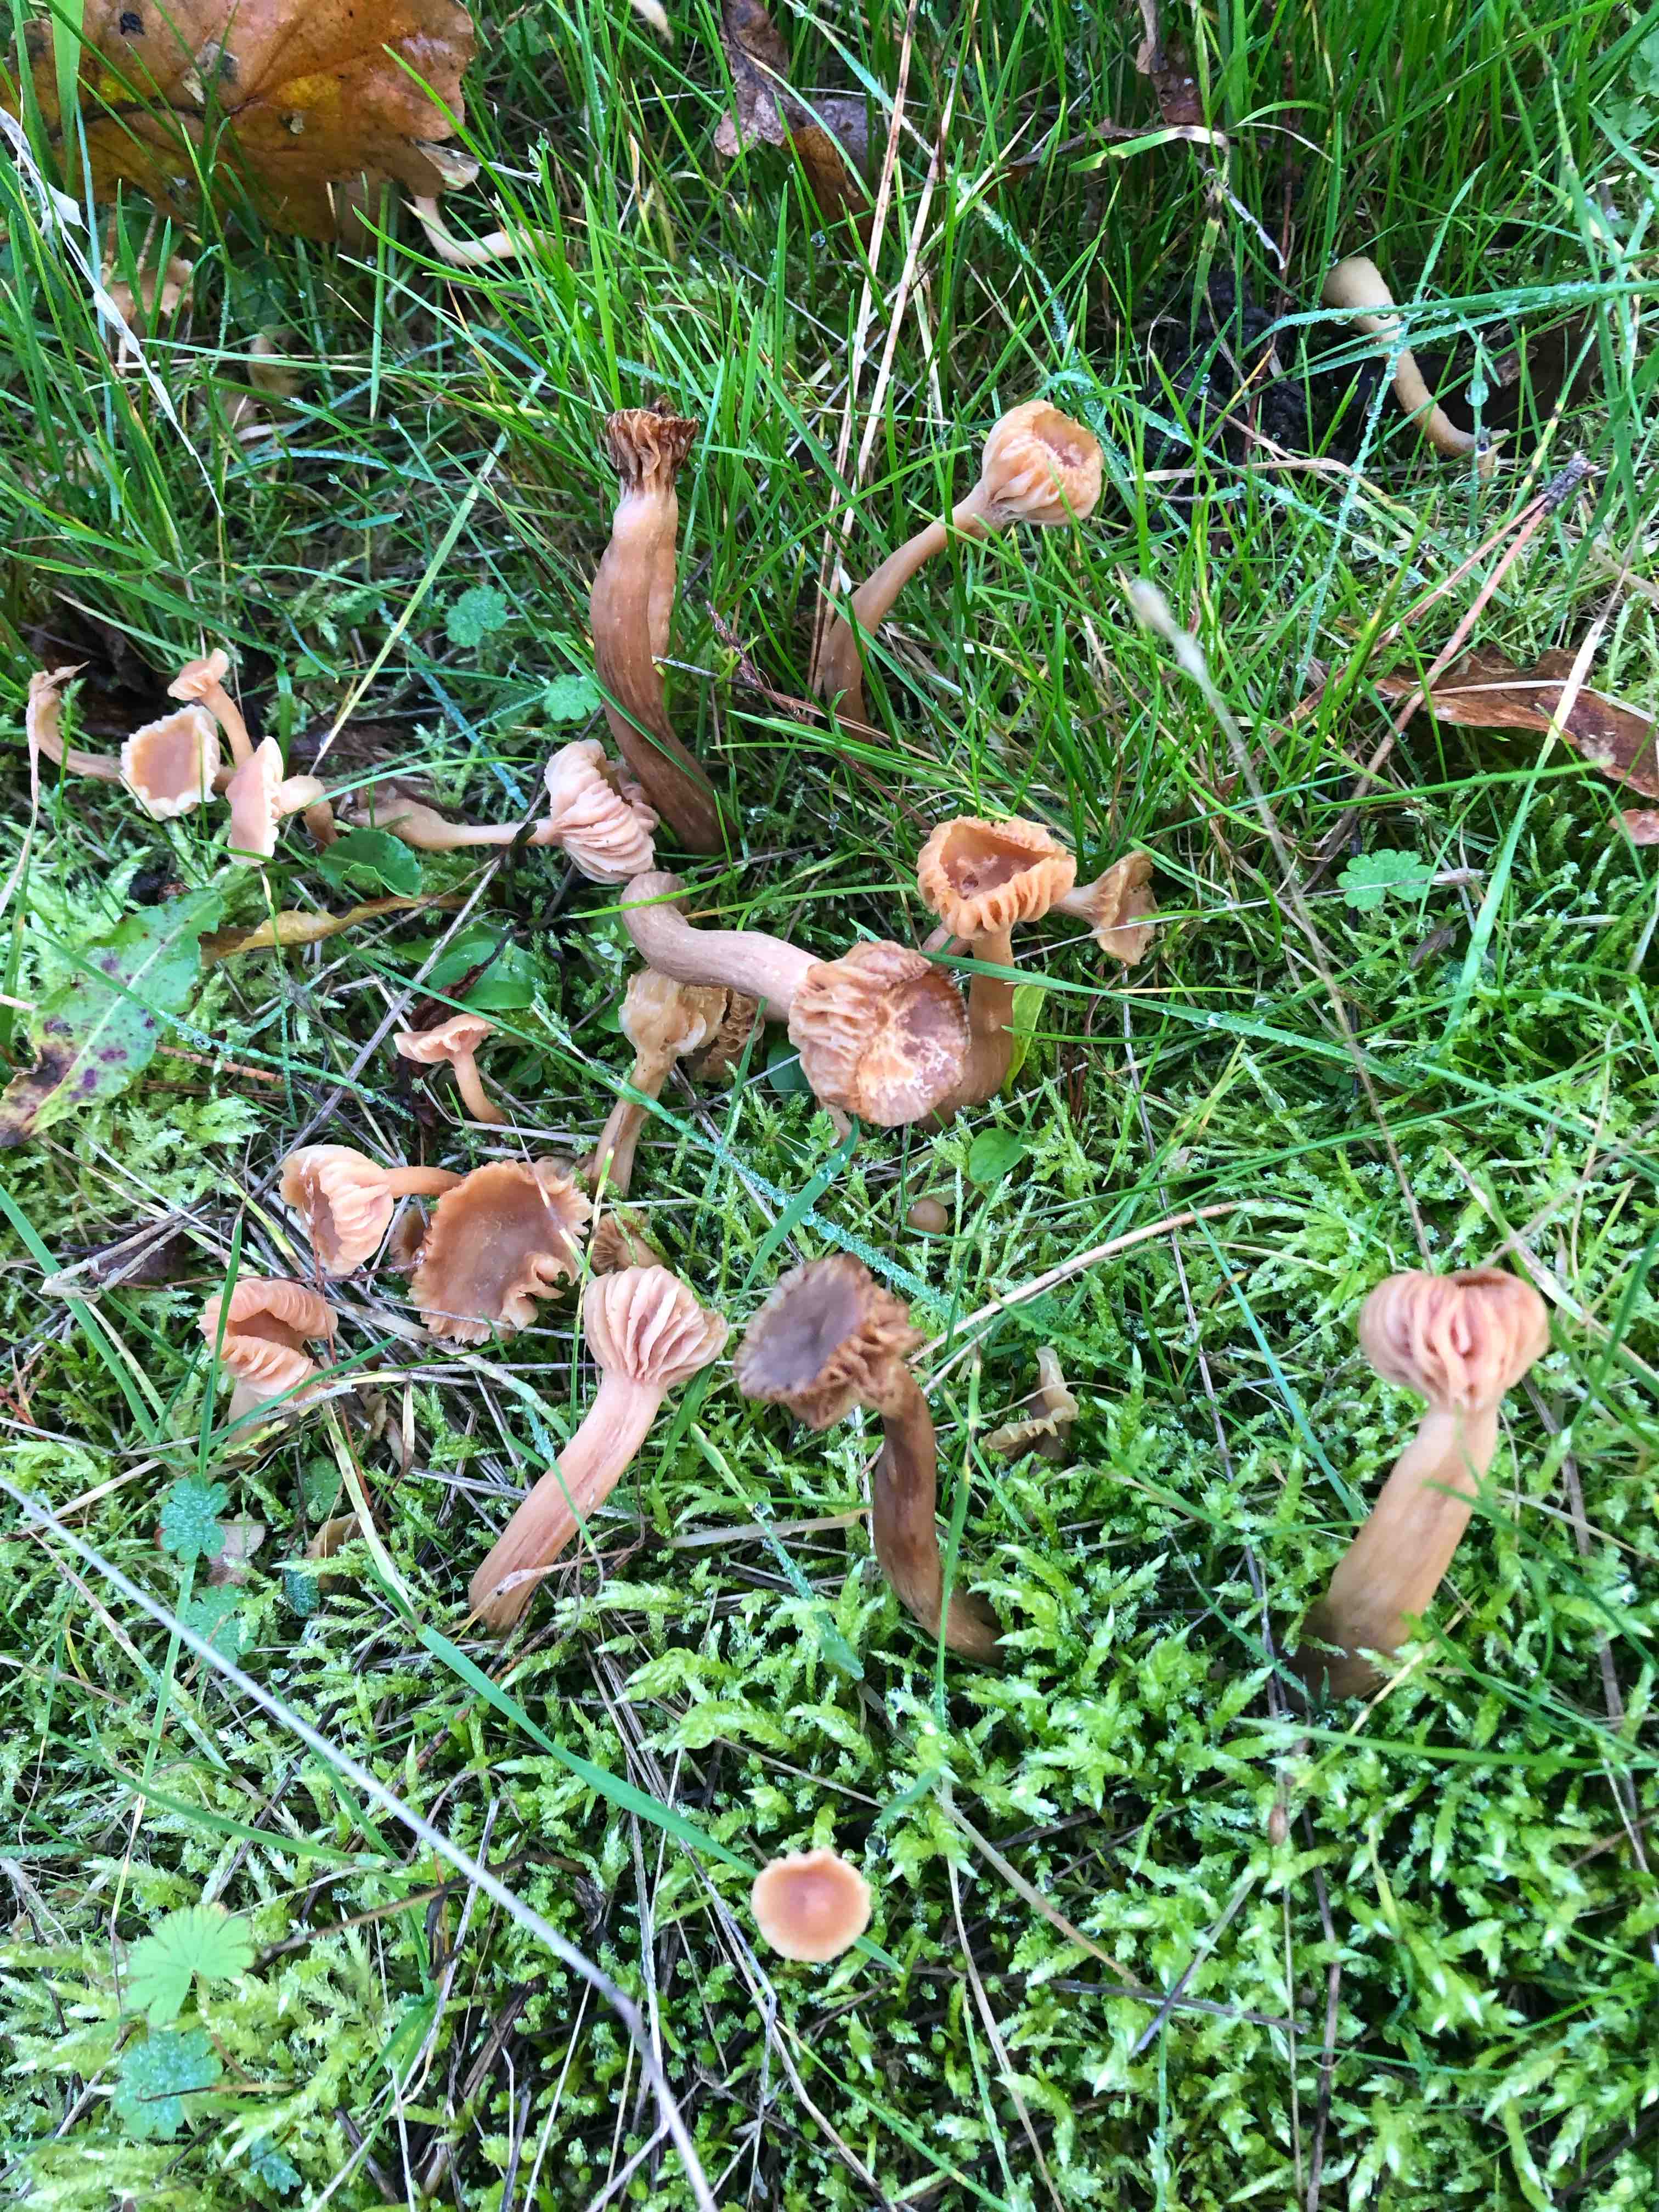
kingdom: Fungi
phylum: Basidiomycota
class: Agaricomycetes
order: Agaricales
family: Hydnangiaceae
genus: Laccaria
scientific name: Laccaria laccata
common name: rød ametysthat
